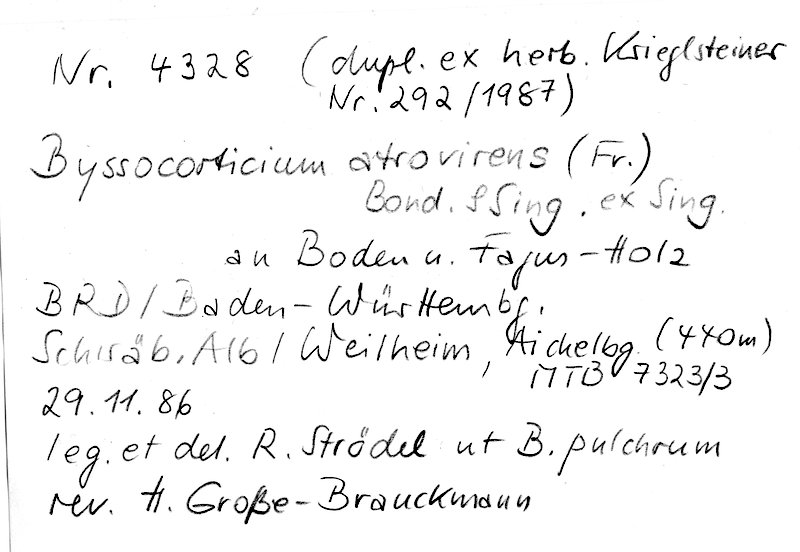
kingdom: Fungi
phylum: Basidiomycota
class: Agaricomycetes
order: Atheliales
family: Atheliaceae
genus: Byssocorticium
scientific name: Byssocorticium atrovirens
